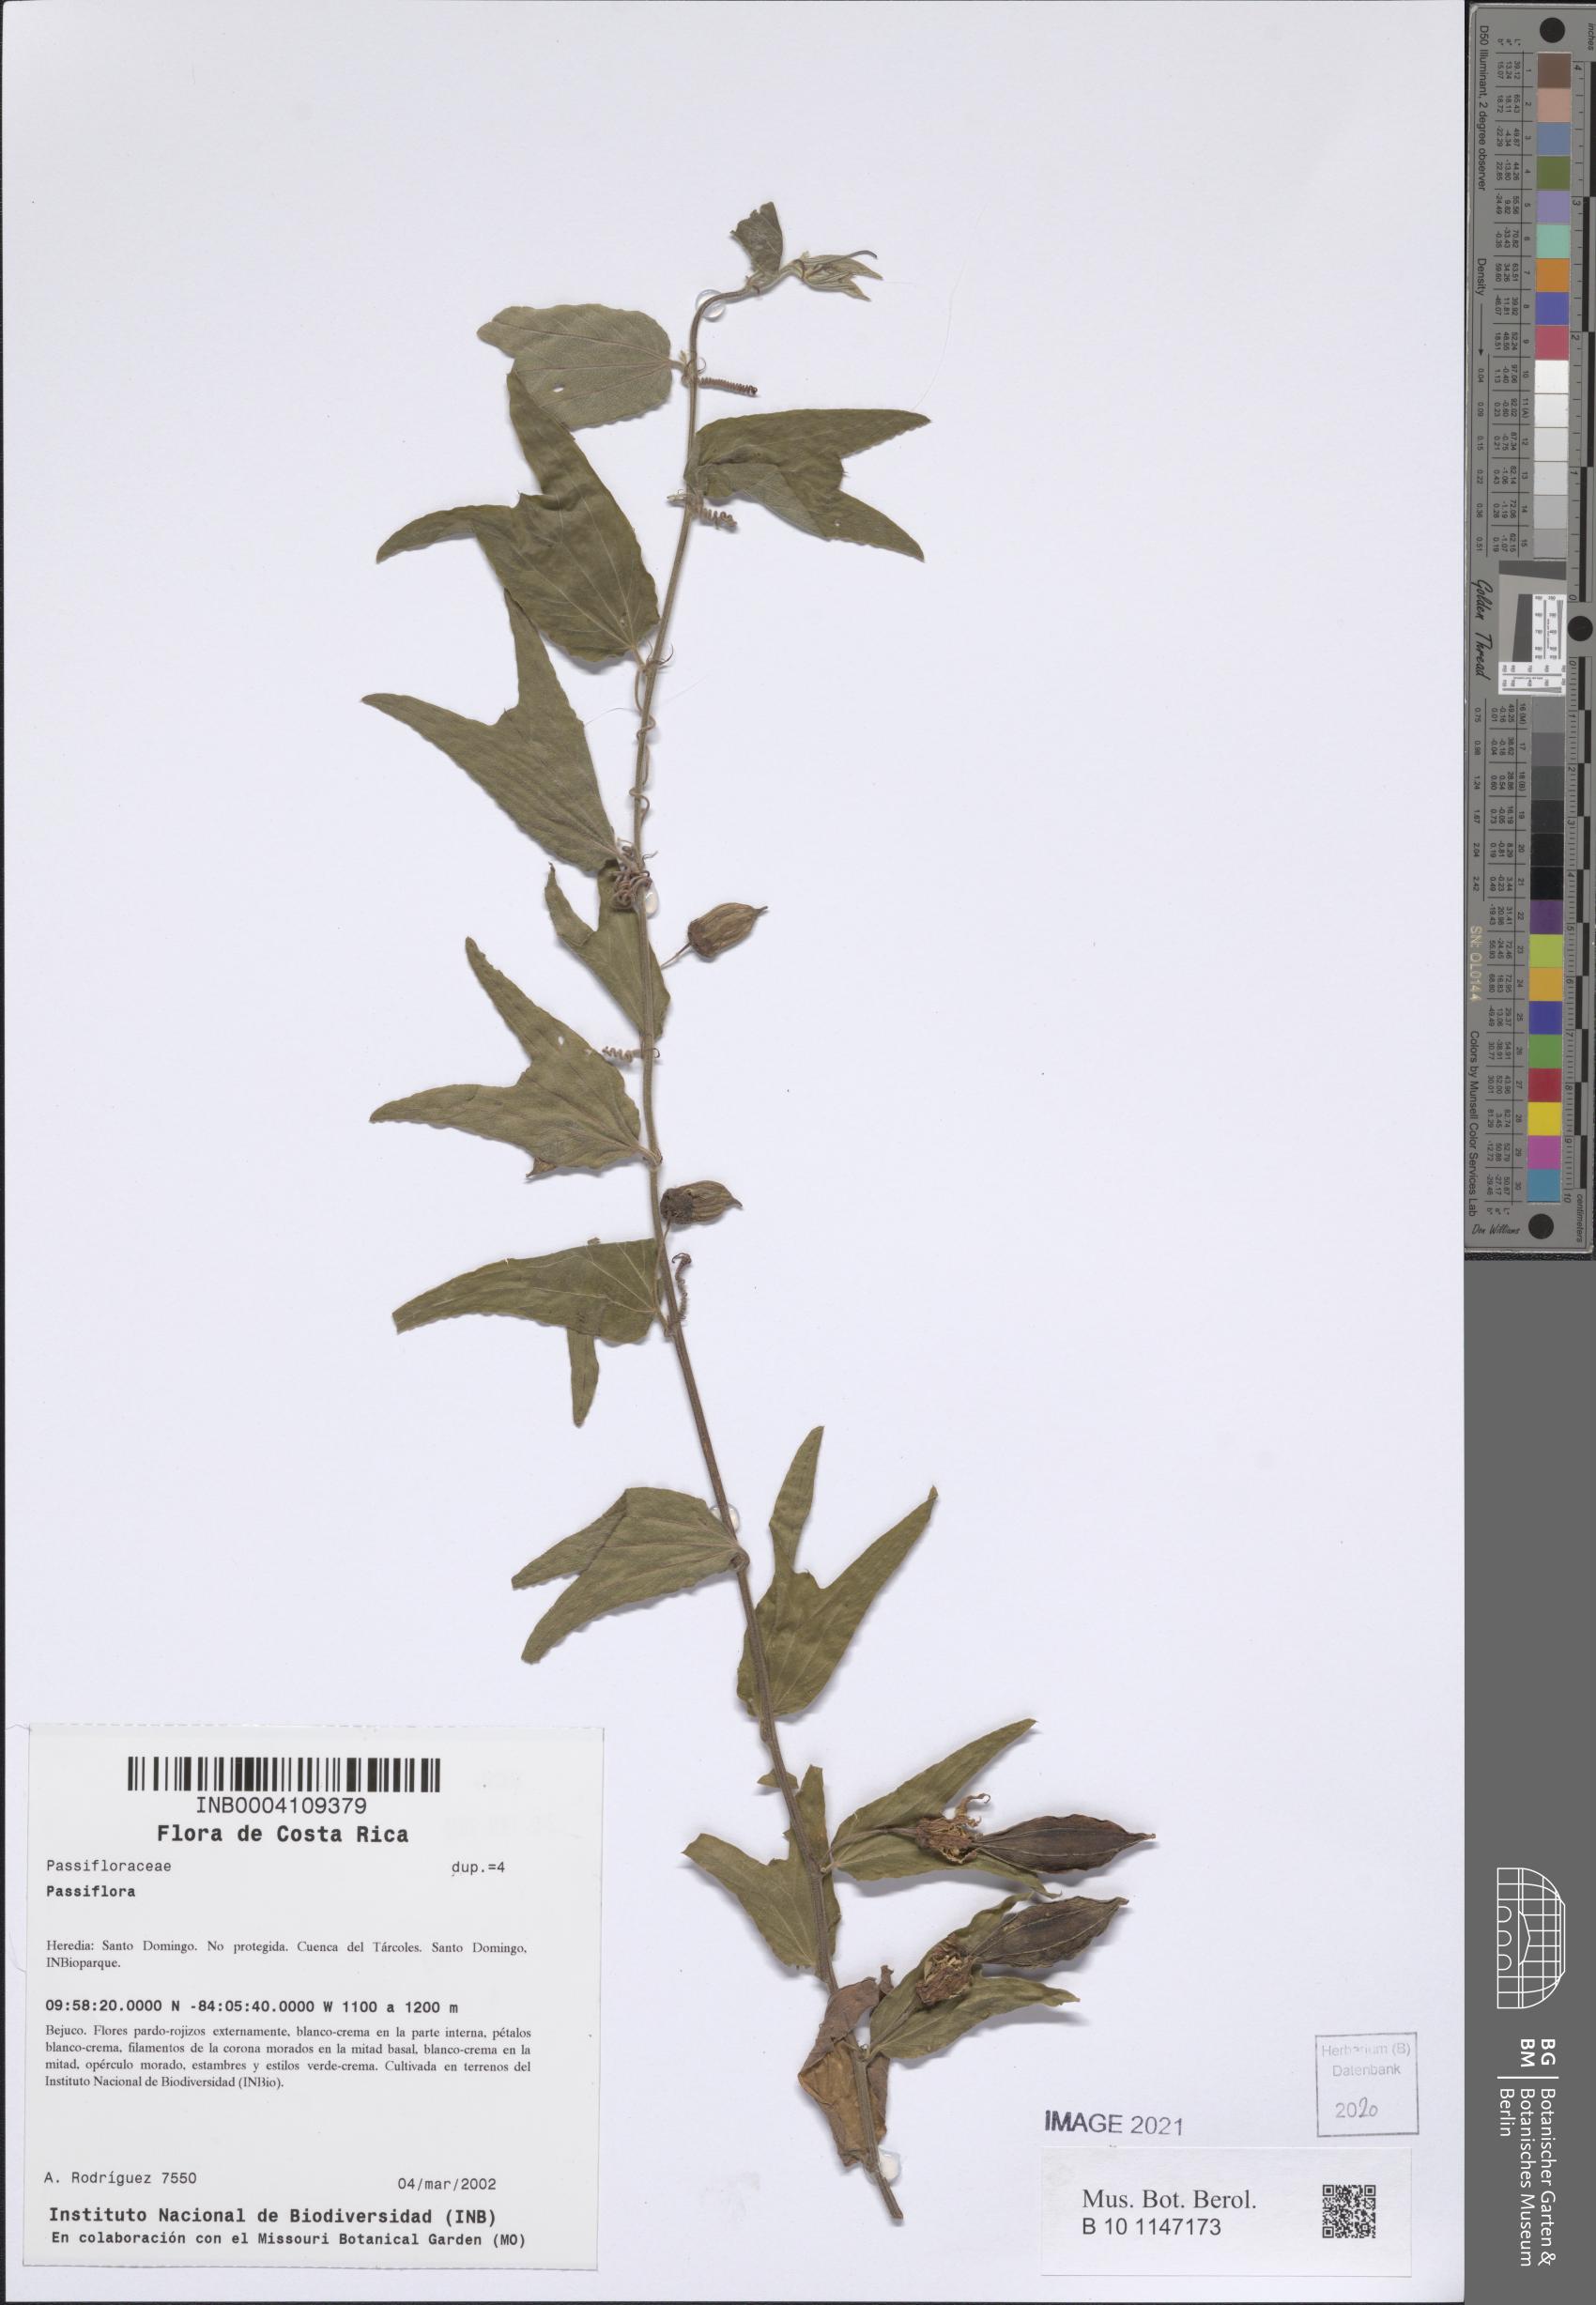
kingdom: Plantae
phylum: Tracheophyta
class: Magnoliopsida
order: Malpighiales
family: Passifloraceae
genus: Passiflora
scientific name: Passiflora
